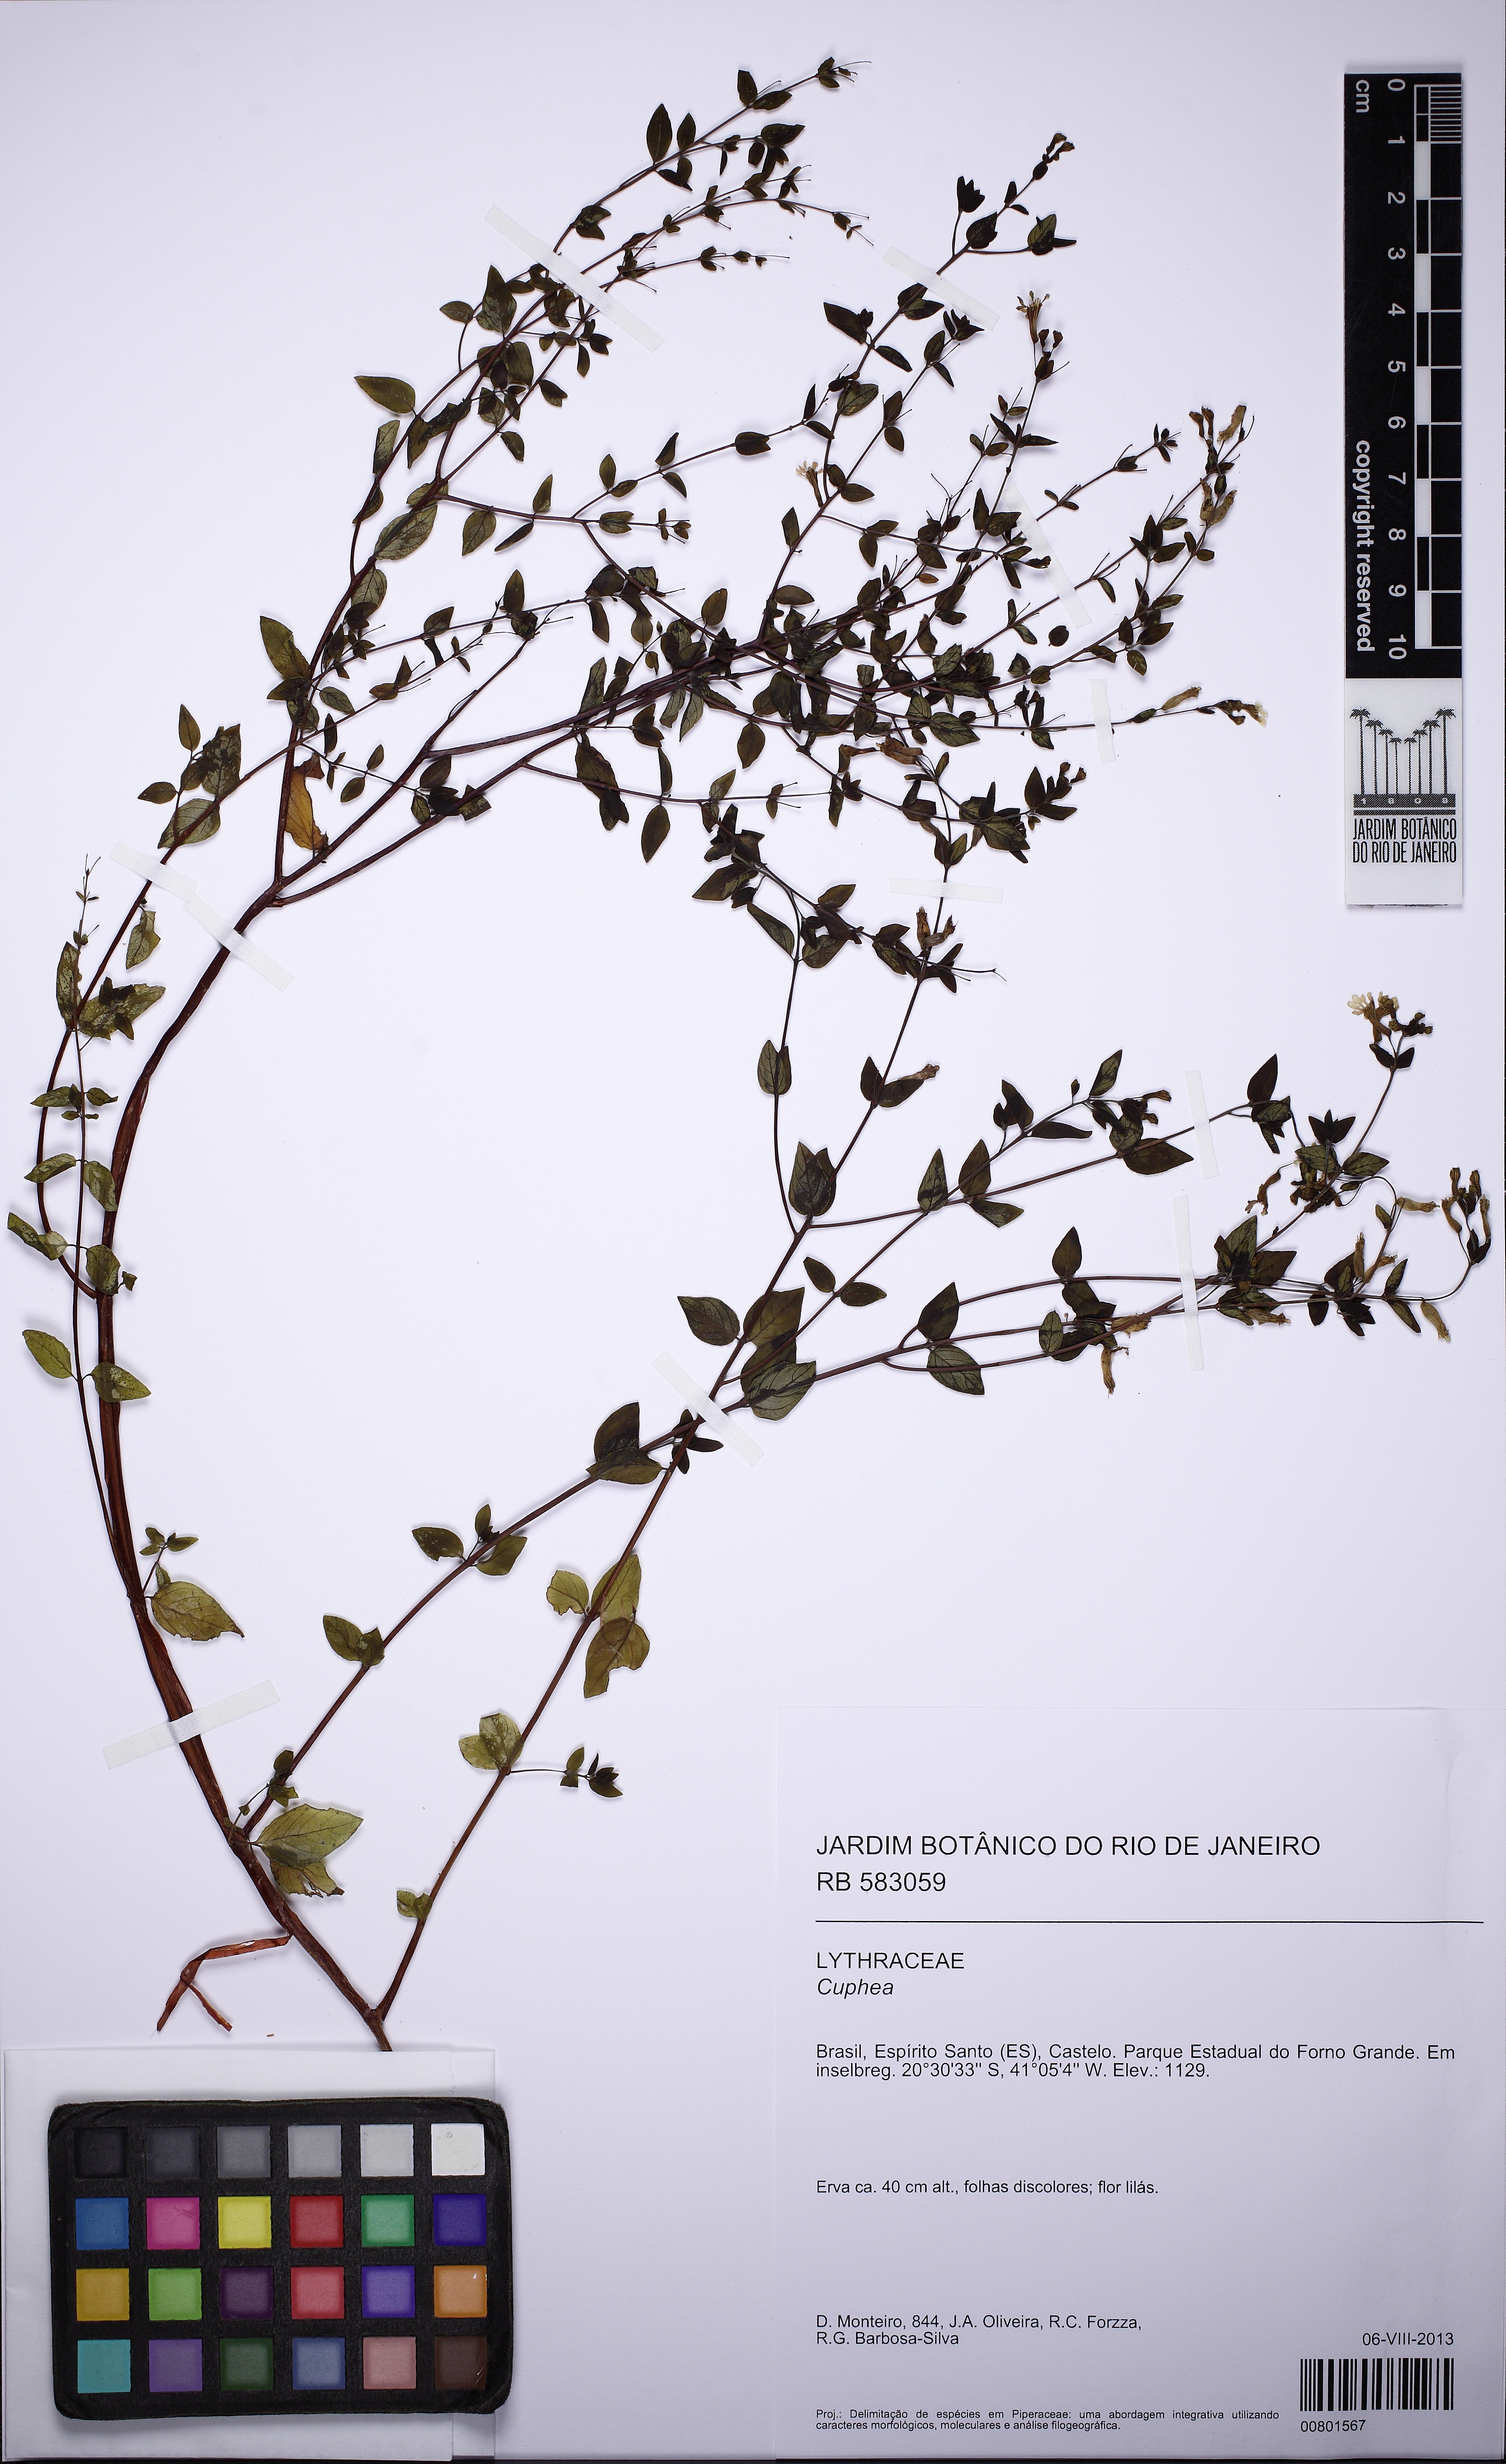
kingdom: Plantae
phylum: Tracheophyta
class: Magnoliopsida
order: Myrtales
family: Lythraceae
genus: Cuphea
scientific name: Cuphea
